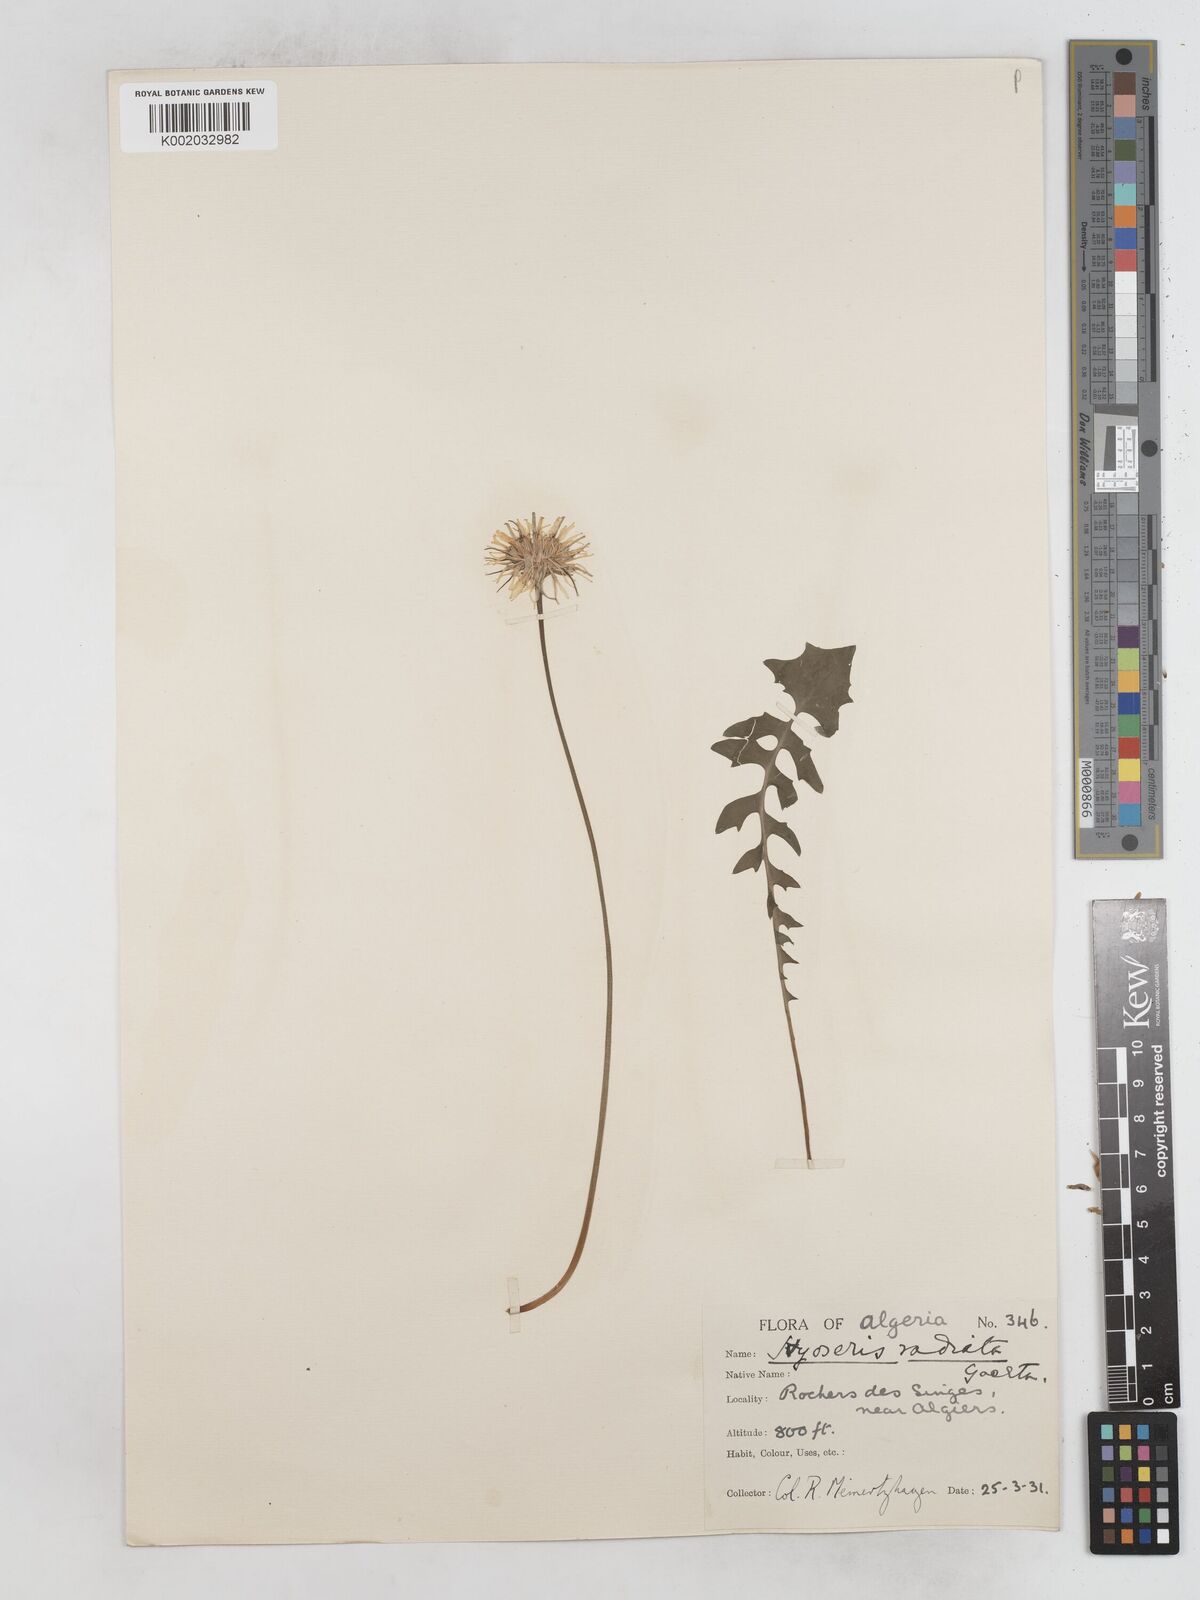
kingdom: Plantae
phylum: Tracheophyta
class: Magnoliopsida
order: Asterales
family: Asteraceae
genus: Hyoseris
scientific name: Hyoseris radiata
